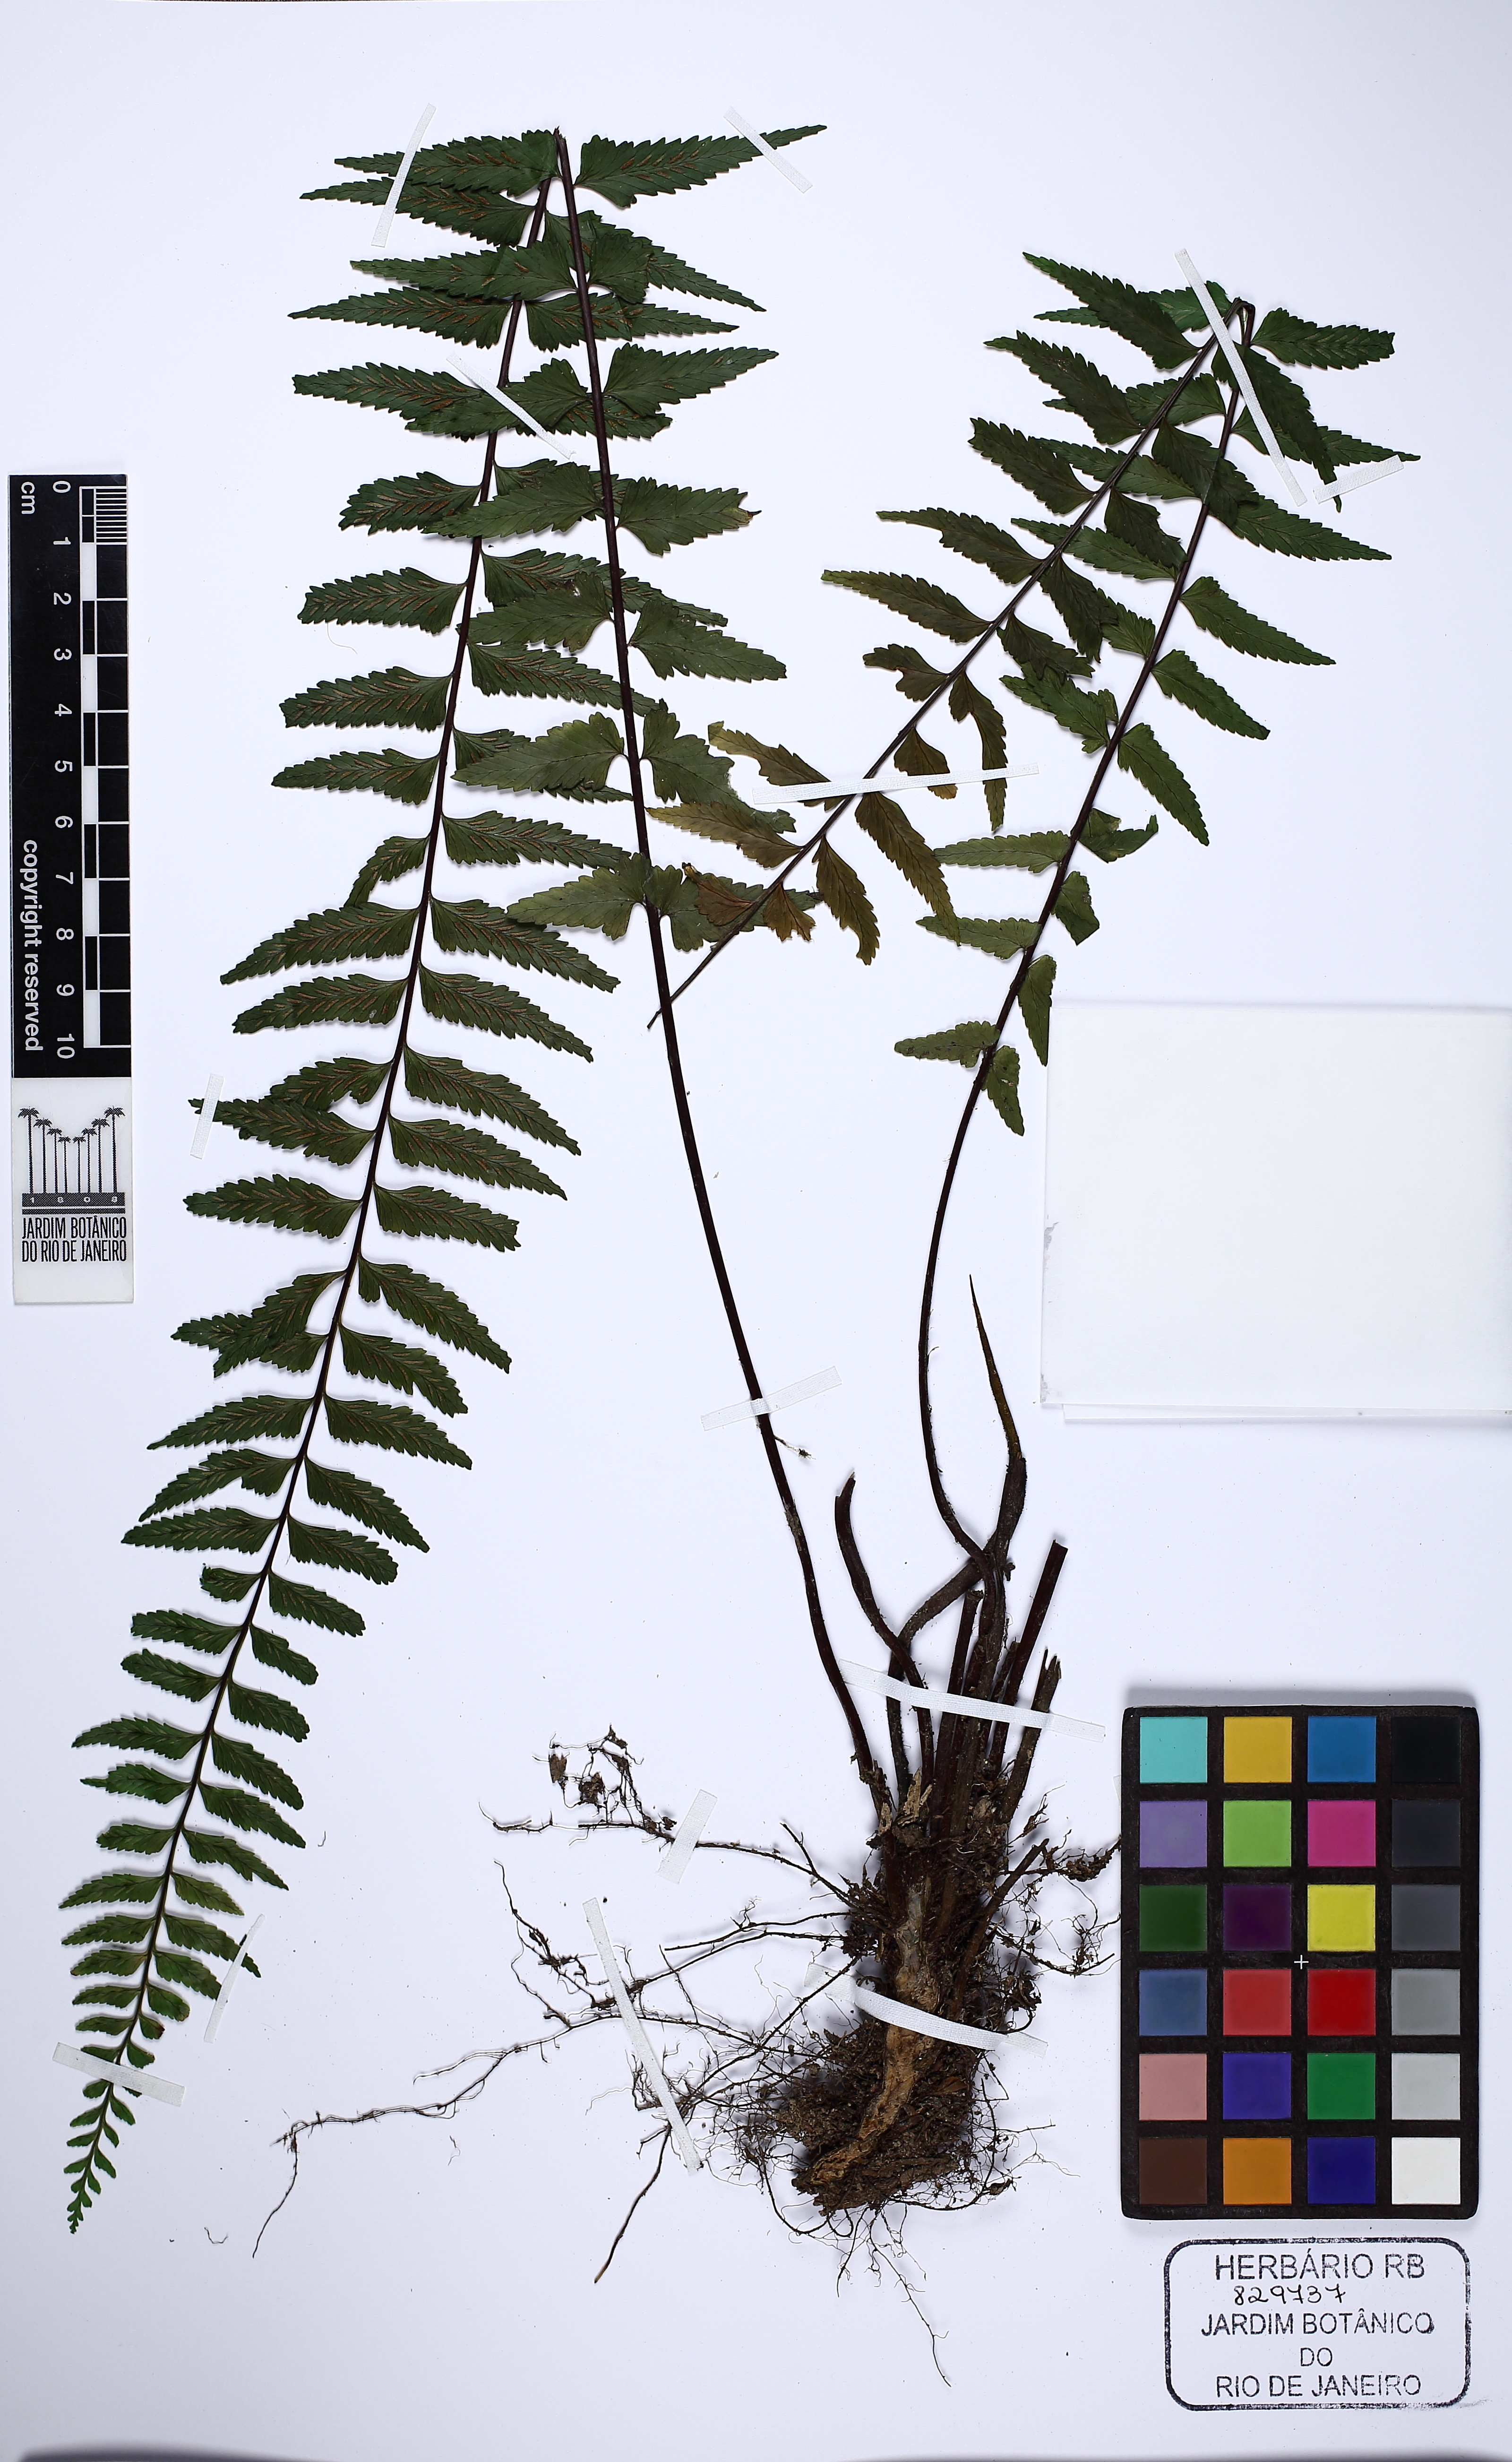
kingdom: Plantae
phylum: Tracheophyta
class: Polypodiopsida
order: Polypodiales
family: Aspleniaceae
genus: Asplenium
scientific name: Asplenium harpeodes
